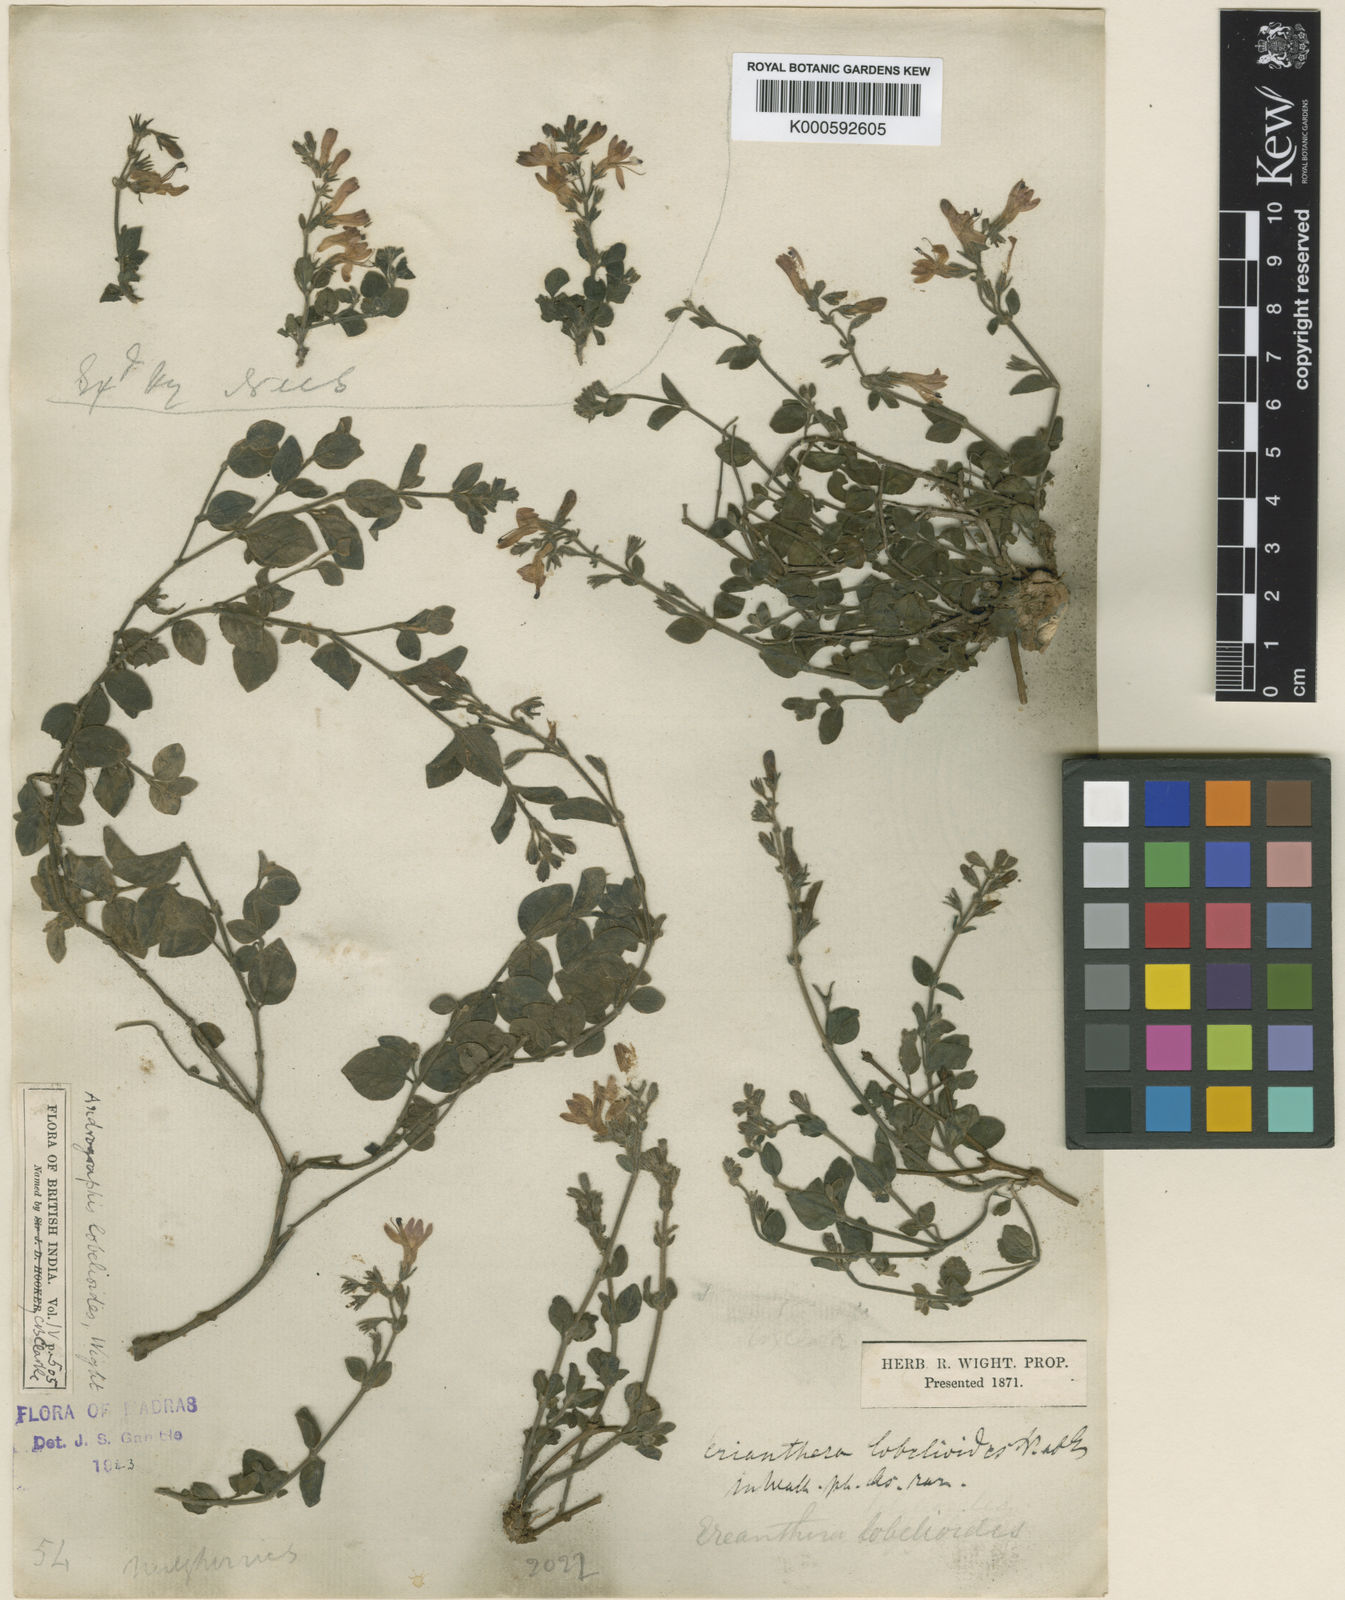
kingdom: Plantae
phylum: Tracheophyta
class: Magnoliopsida
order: Lamiales
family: Acanthaceae
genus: Andrographis
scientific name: Andrographis lobelioides
